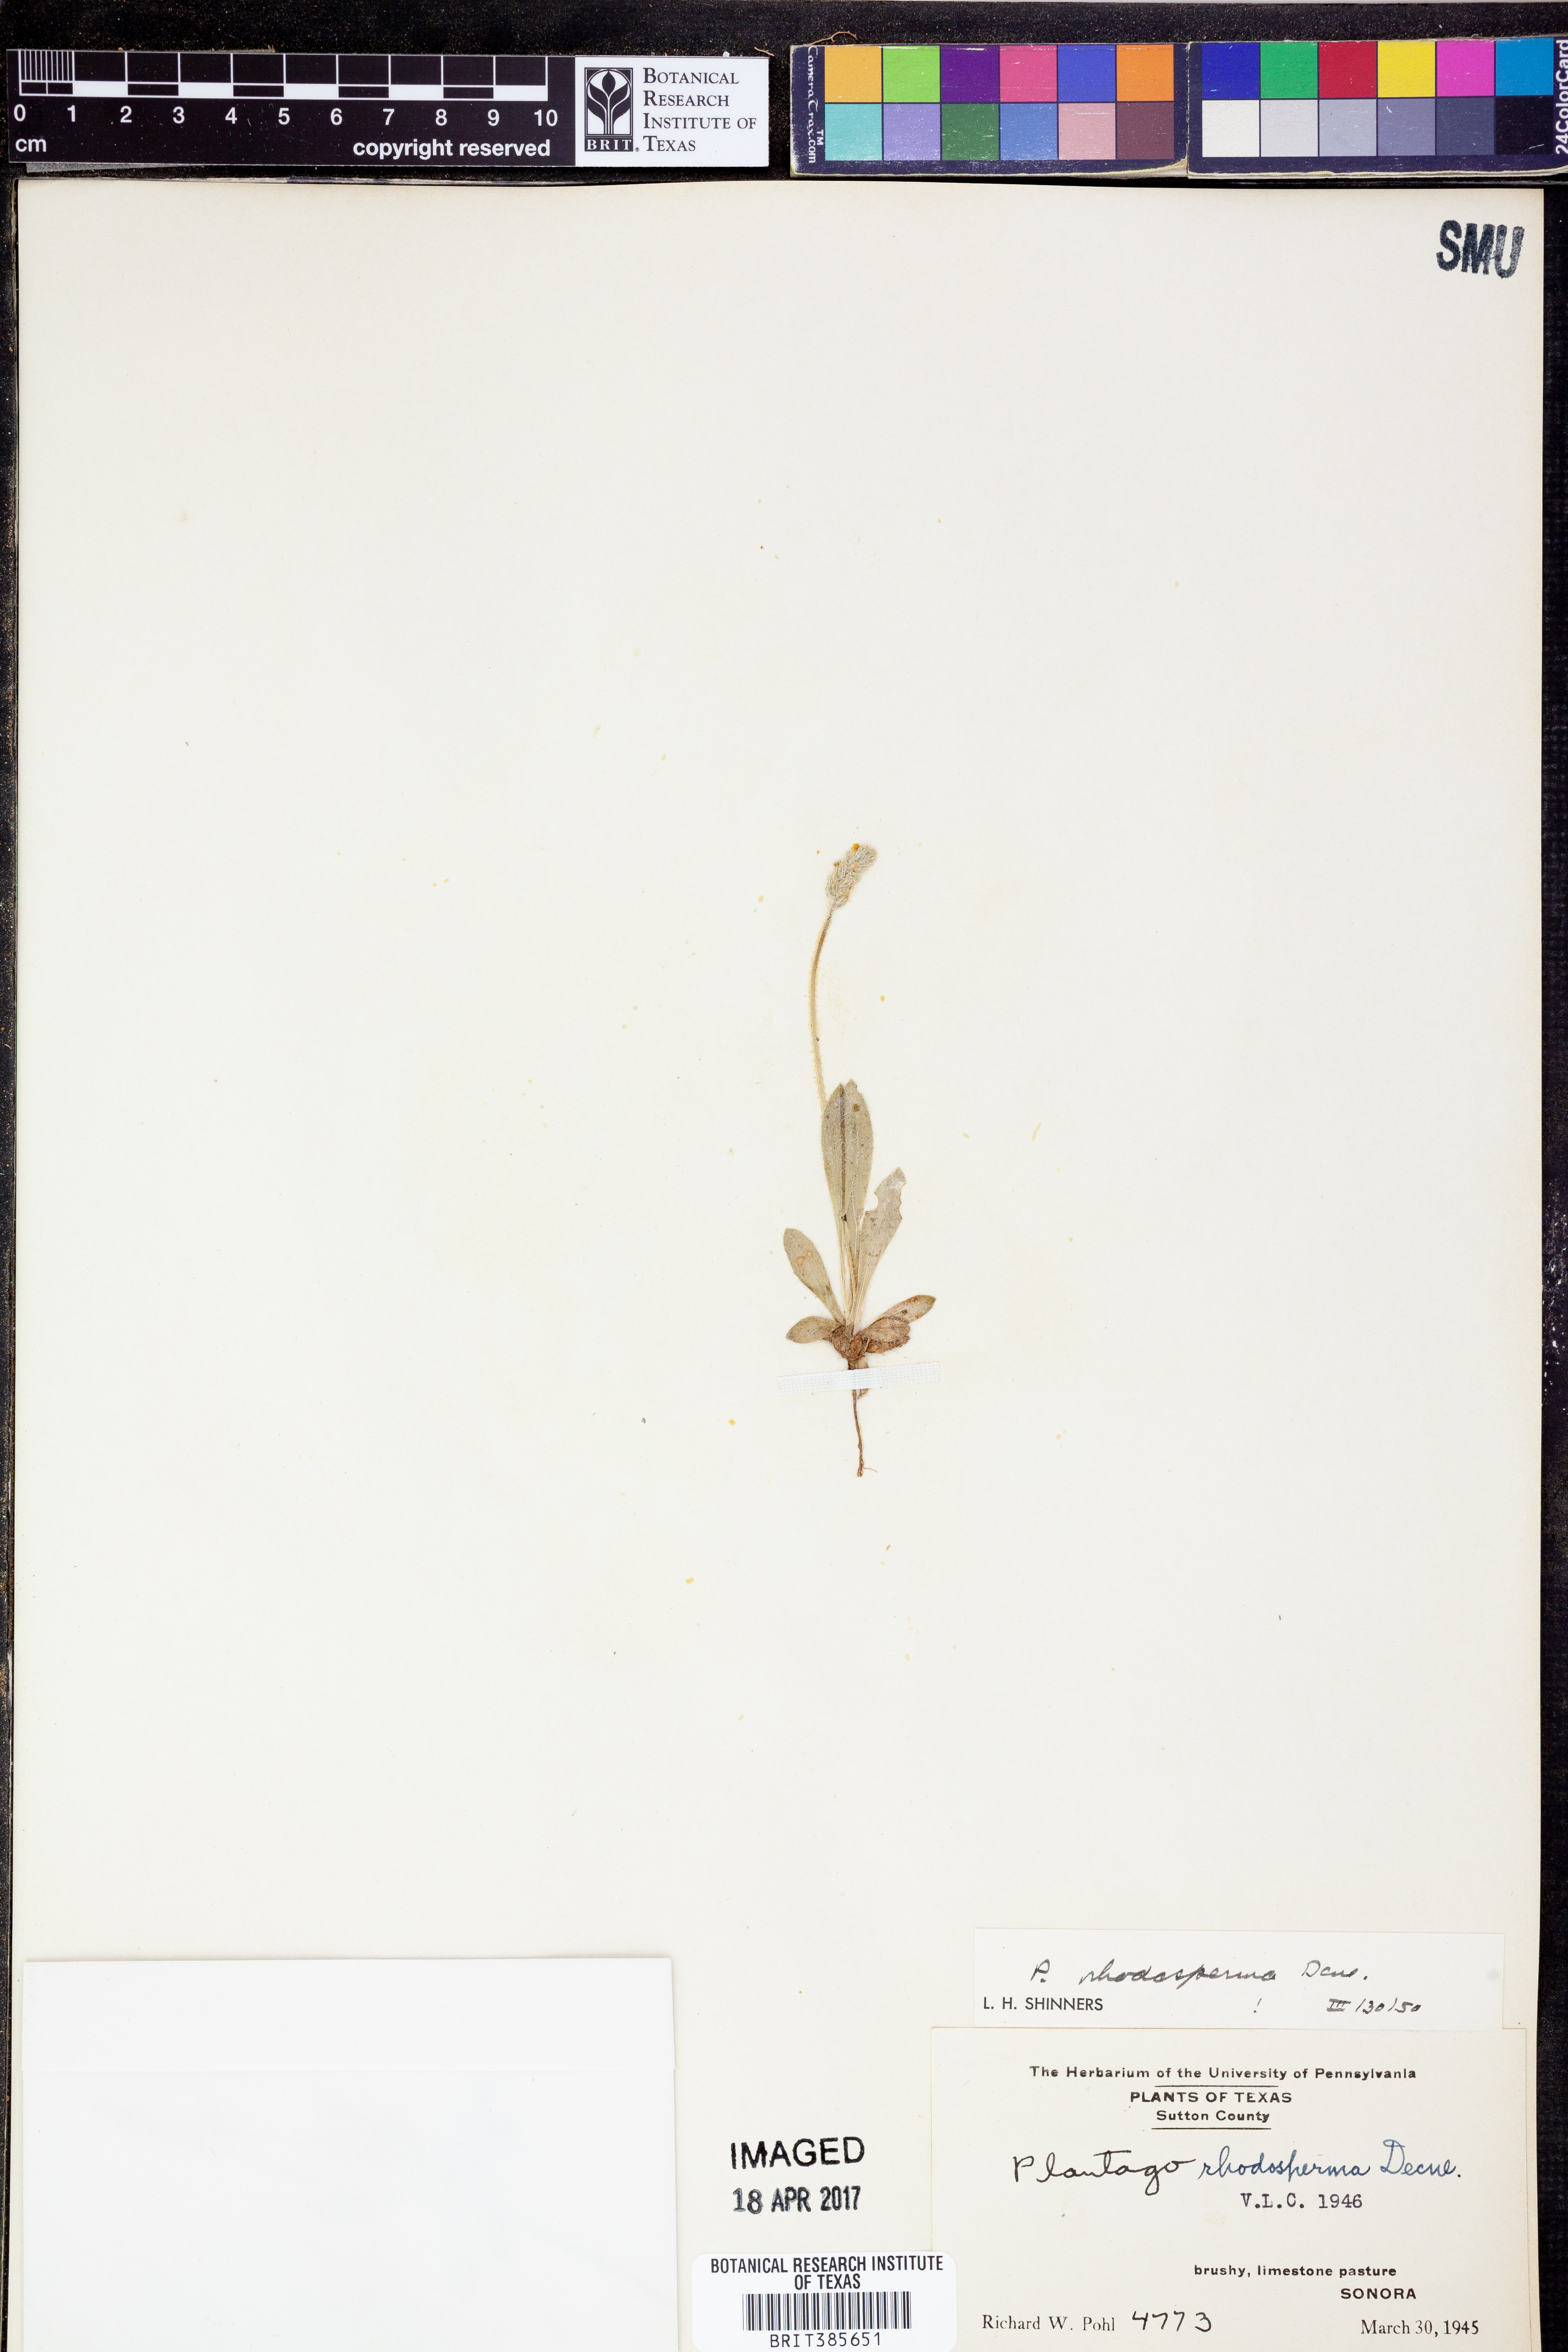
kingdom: Plantae
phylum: Tracheophyta
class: Magnoliopsida
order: Lamiales
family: Plantaginaceae
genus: Plantago
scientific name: Plantago rhodosperma
